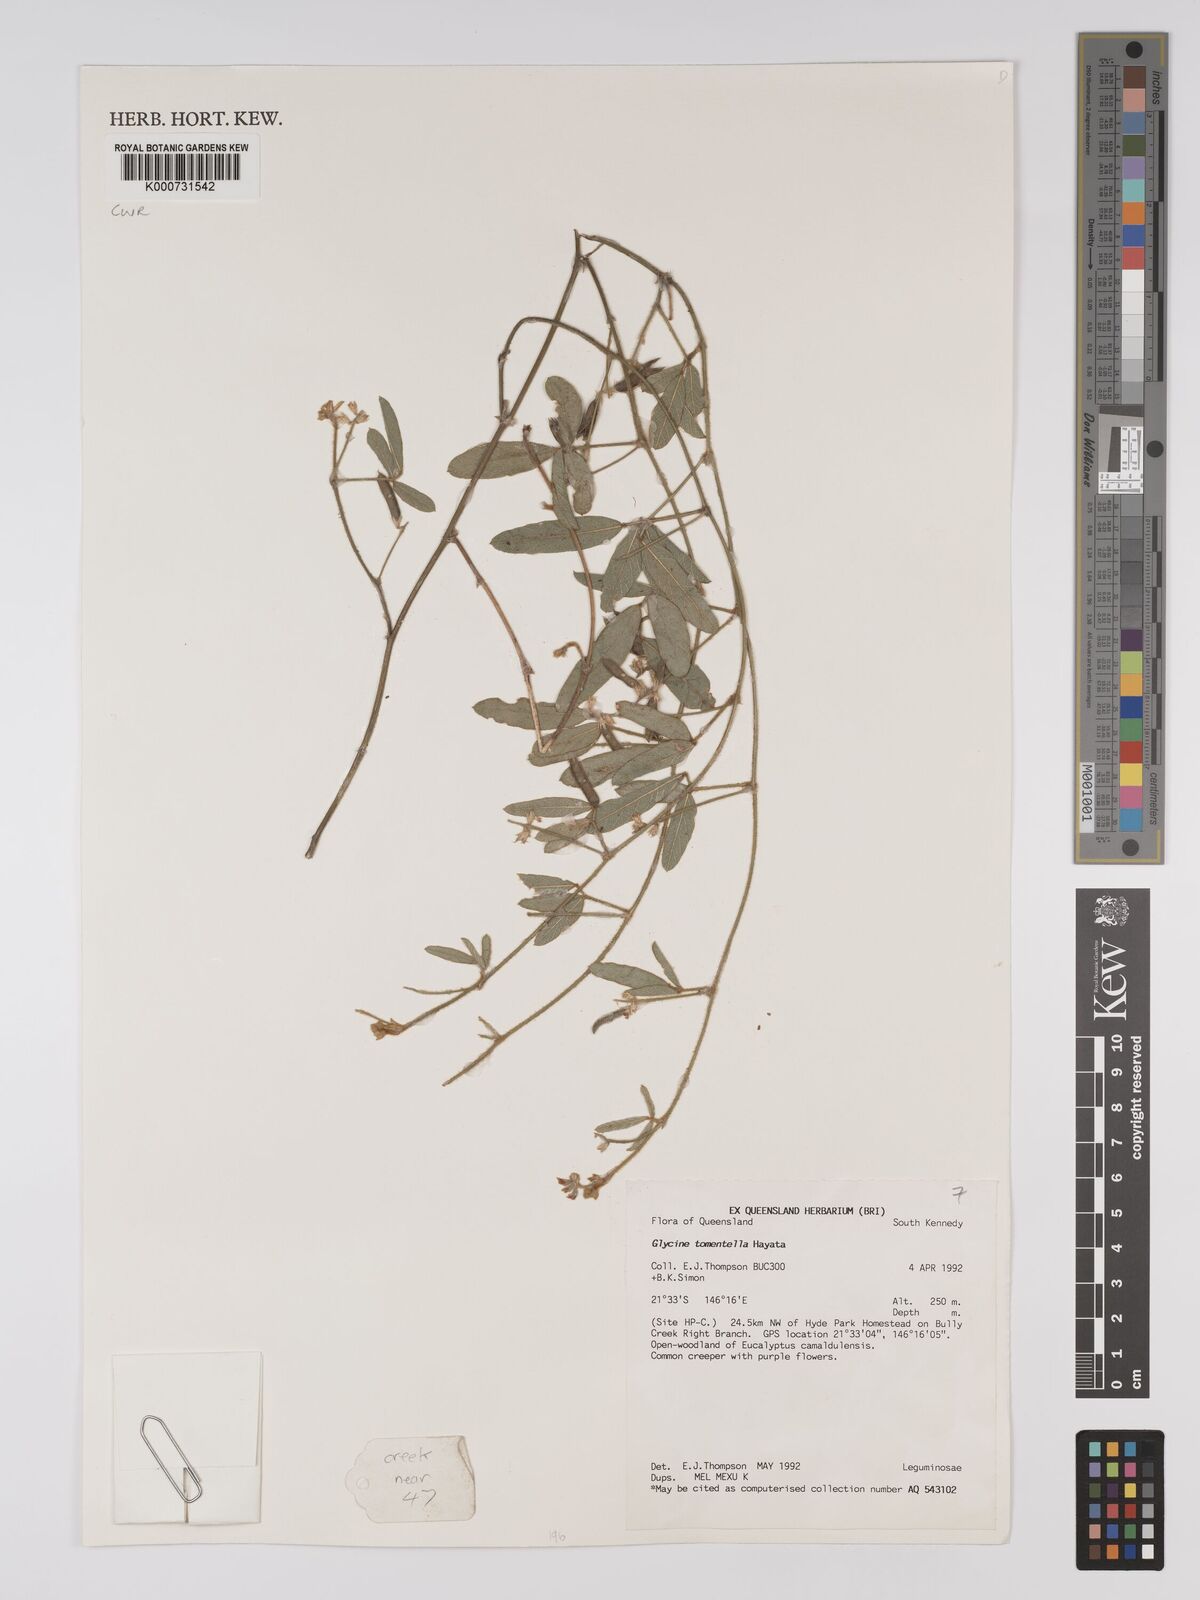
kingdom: Plantae
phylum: Tracheophyta
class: Magnoliopsida
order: Fabales
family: Fabaceae
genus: Glycine
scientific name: Glycine tomentella
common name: Hairy glycine
